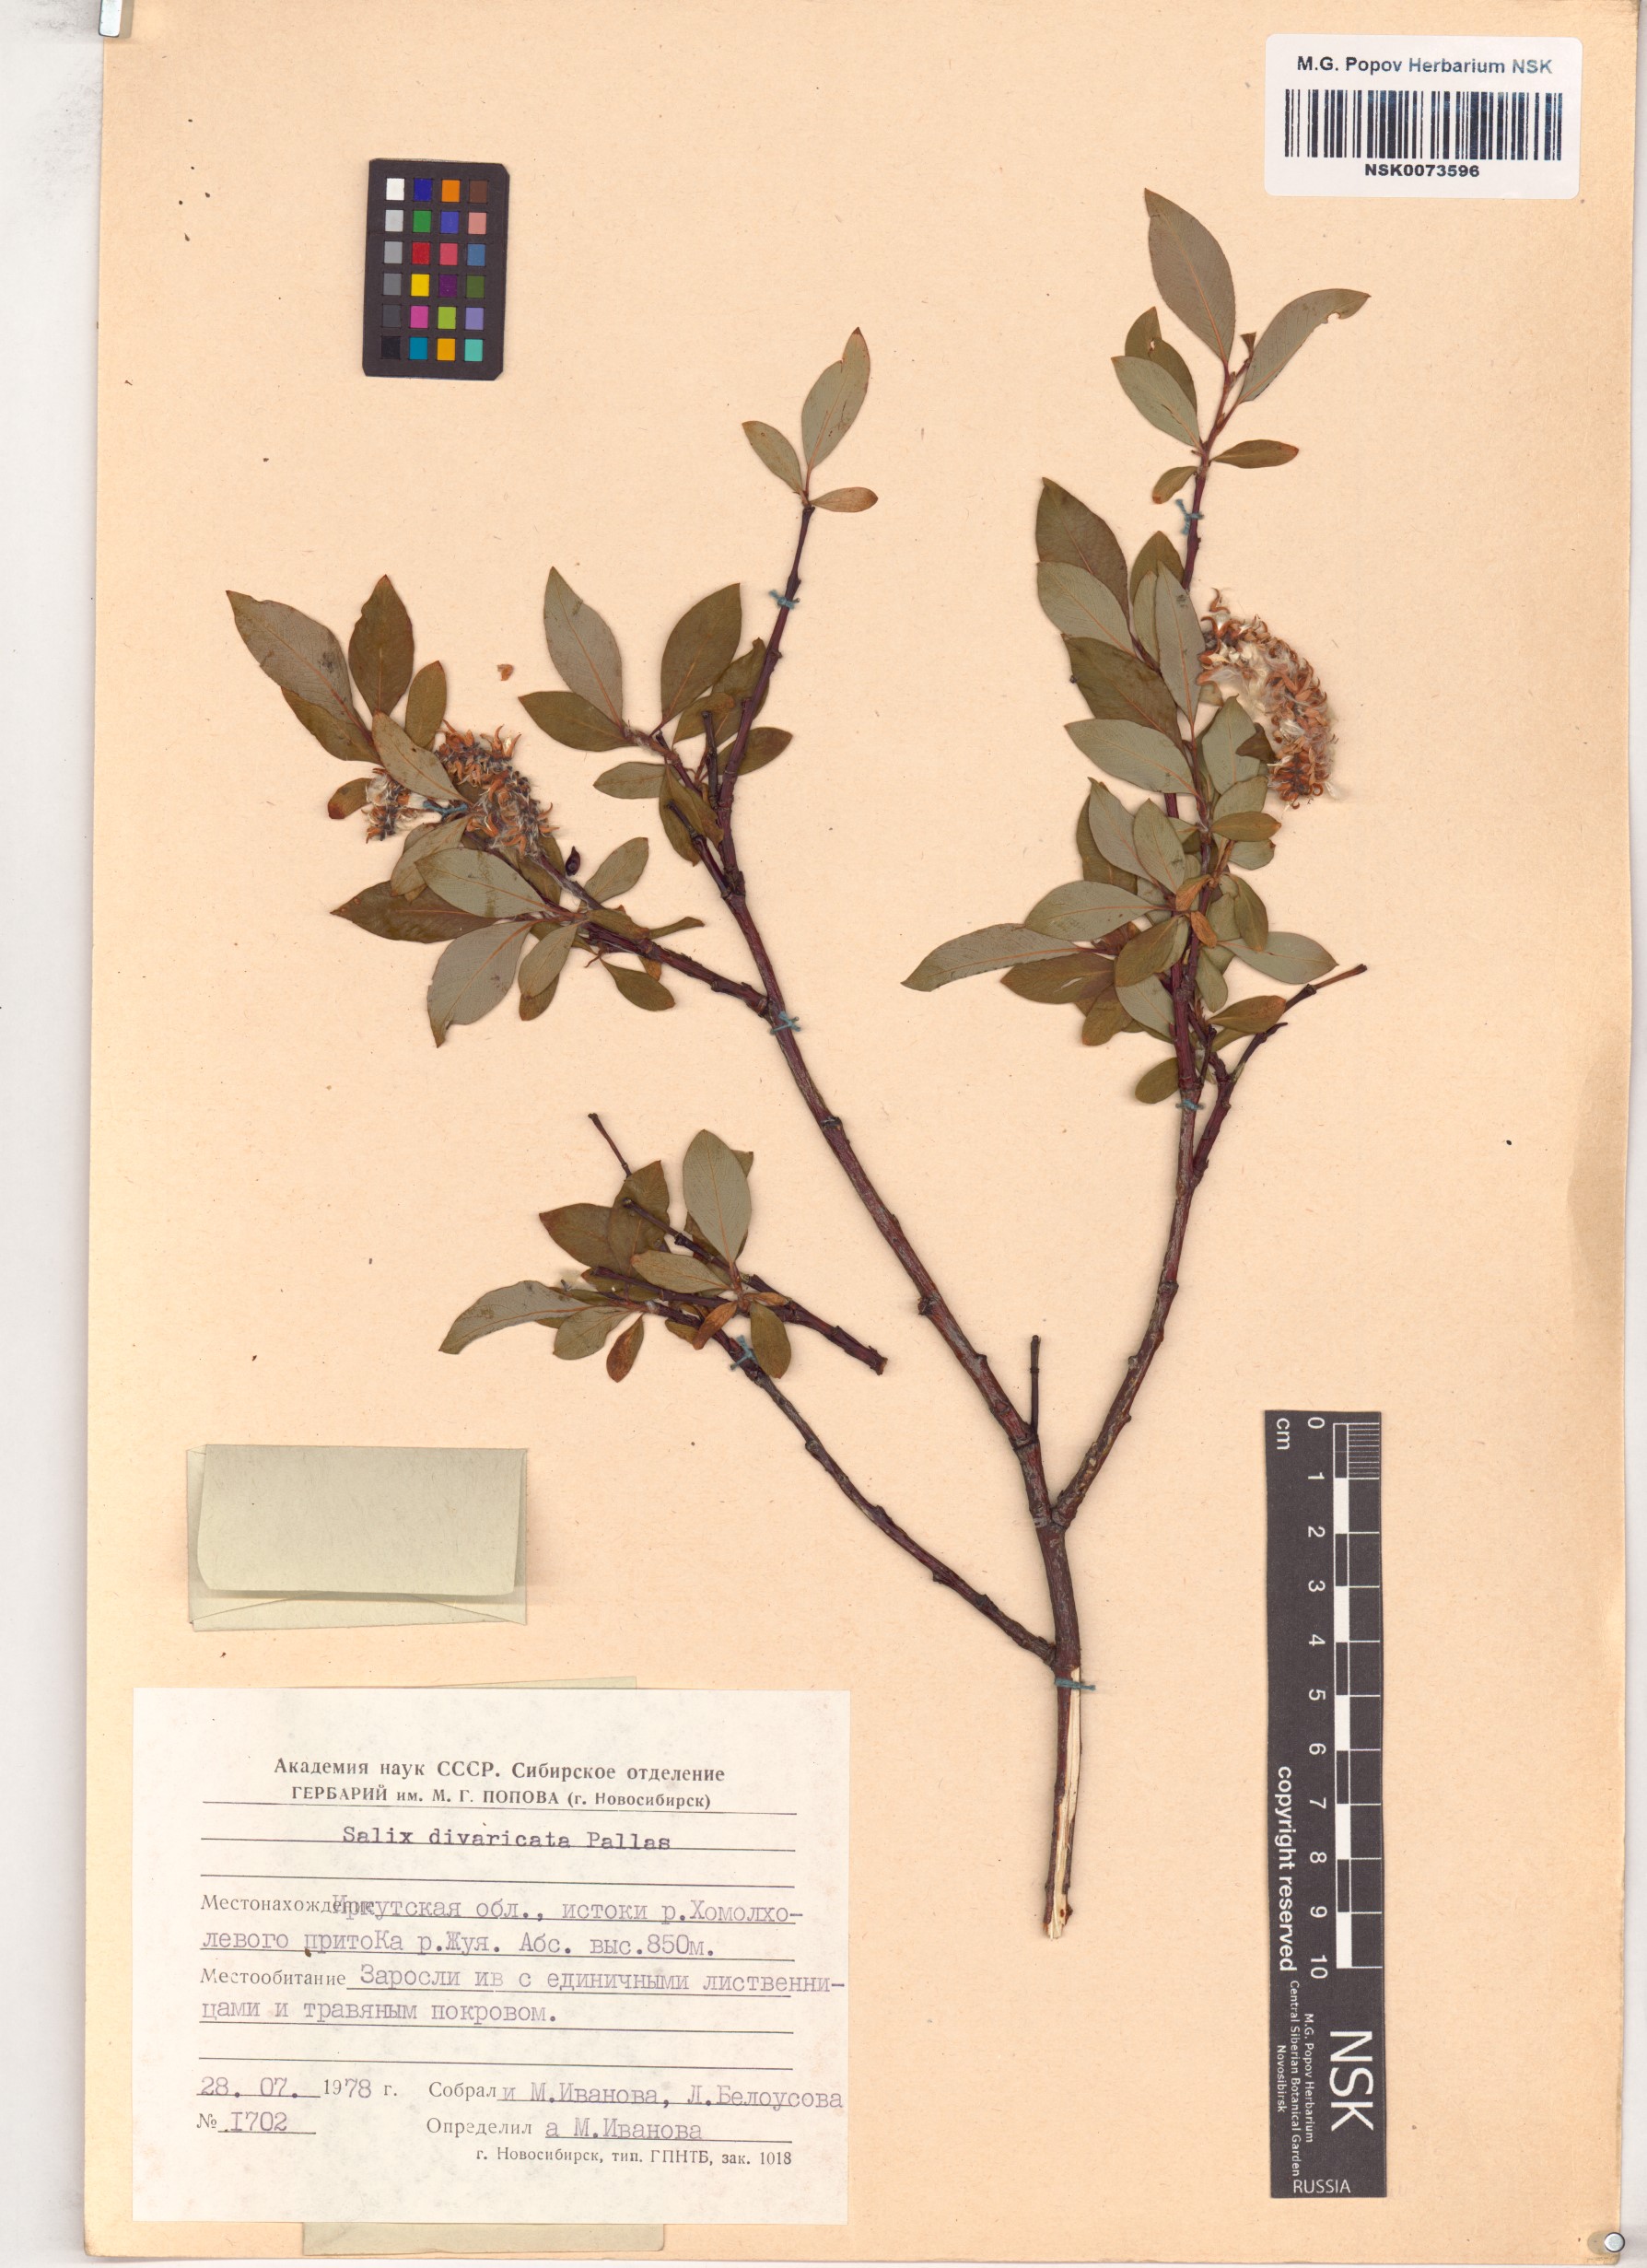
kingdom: Plantae
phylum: Tracheophyta
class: Magnoliopsida
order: Malpighiales
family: Salicaceae
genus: Salix
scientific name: Salix divaricata
